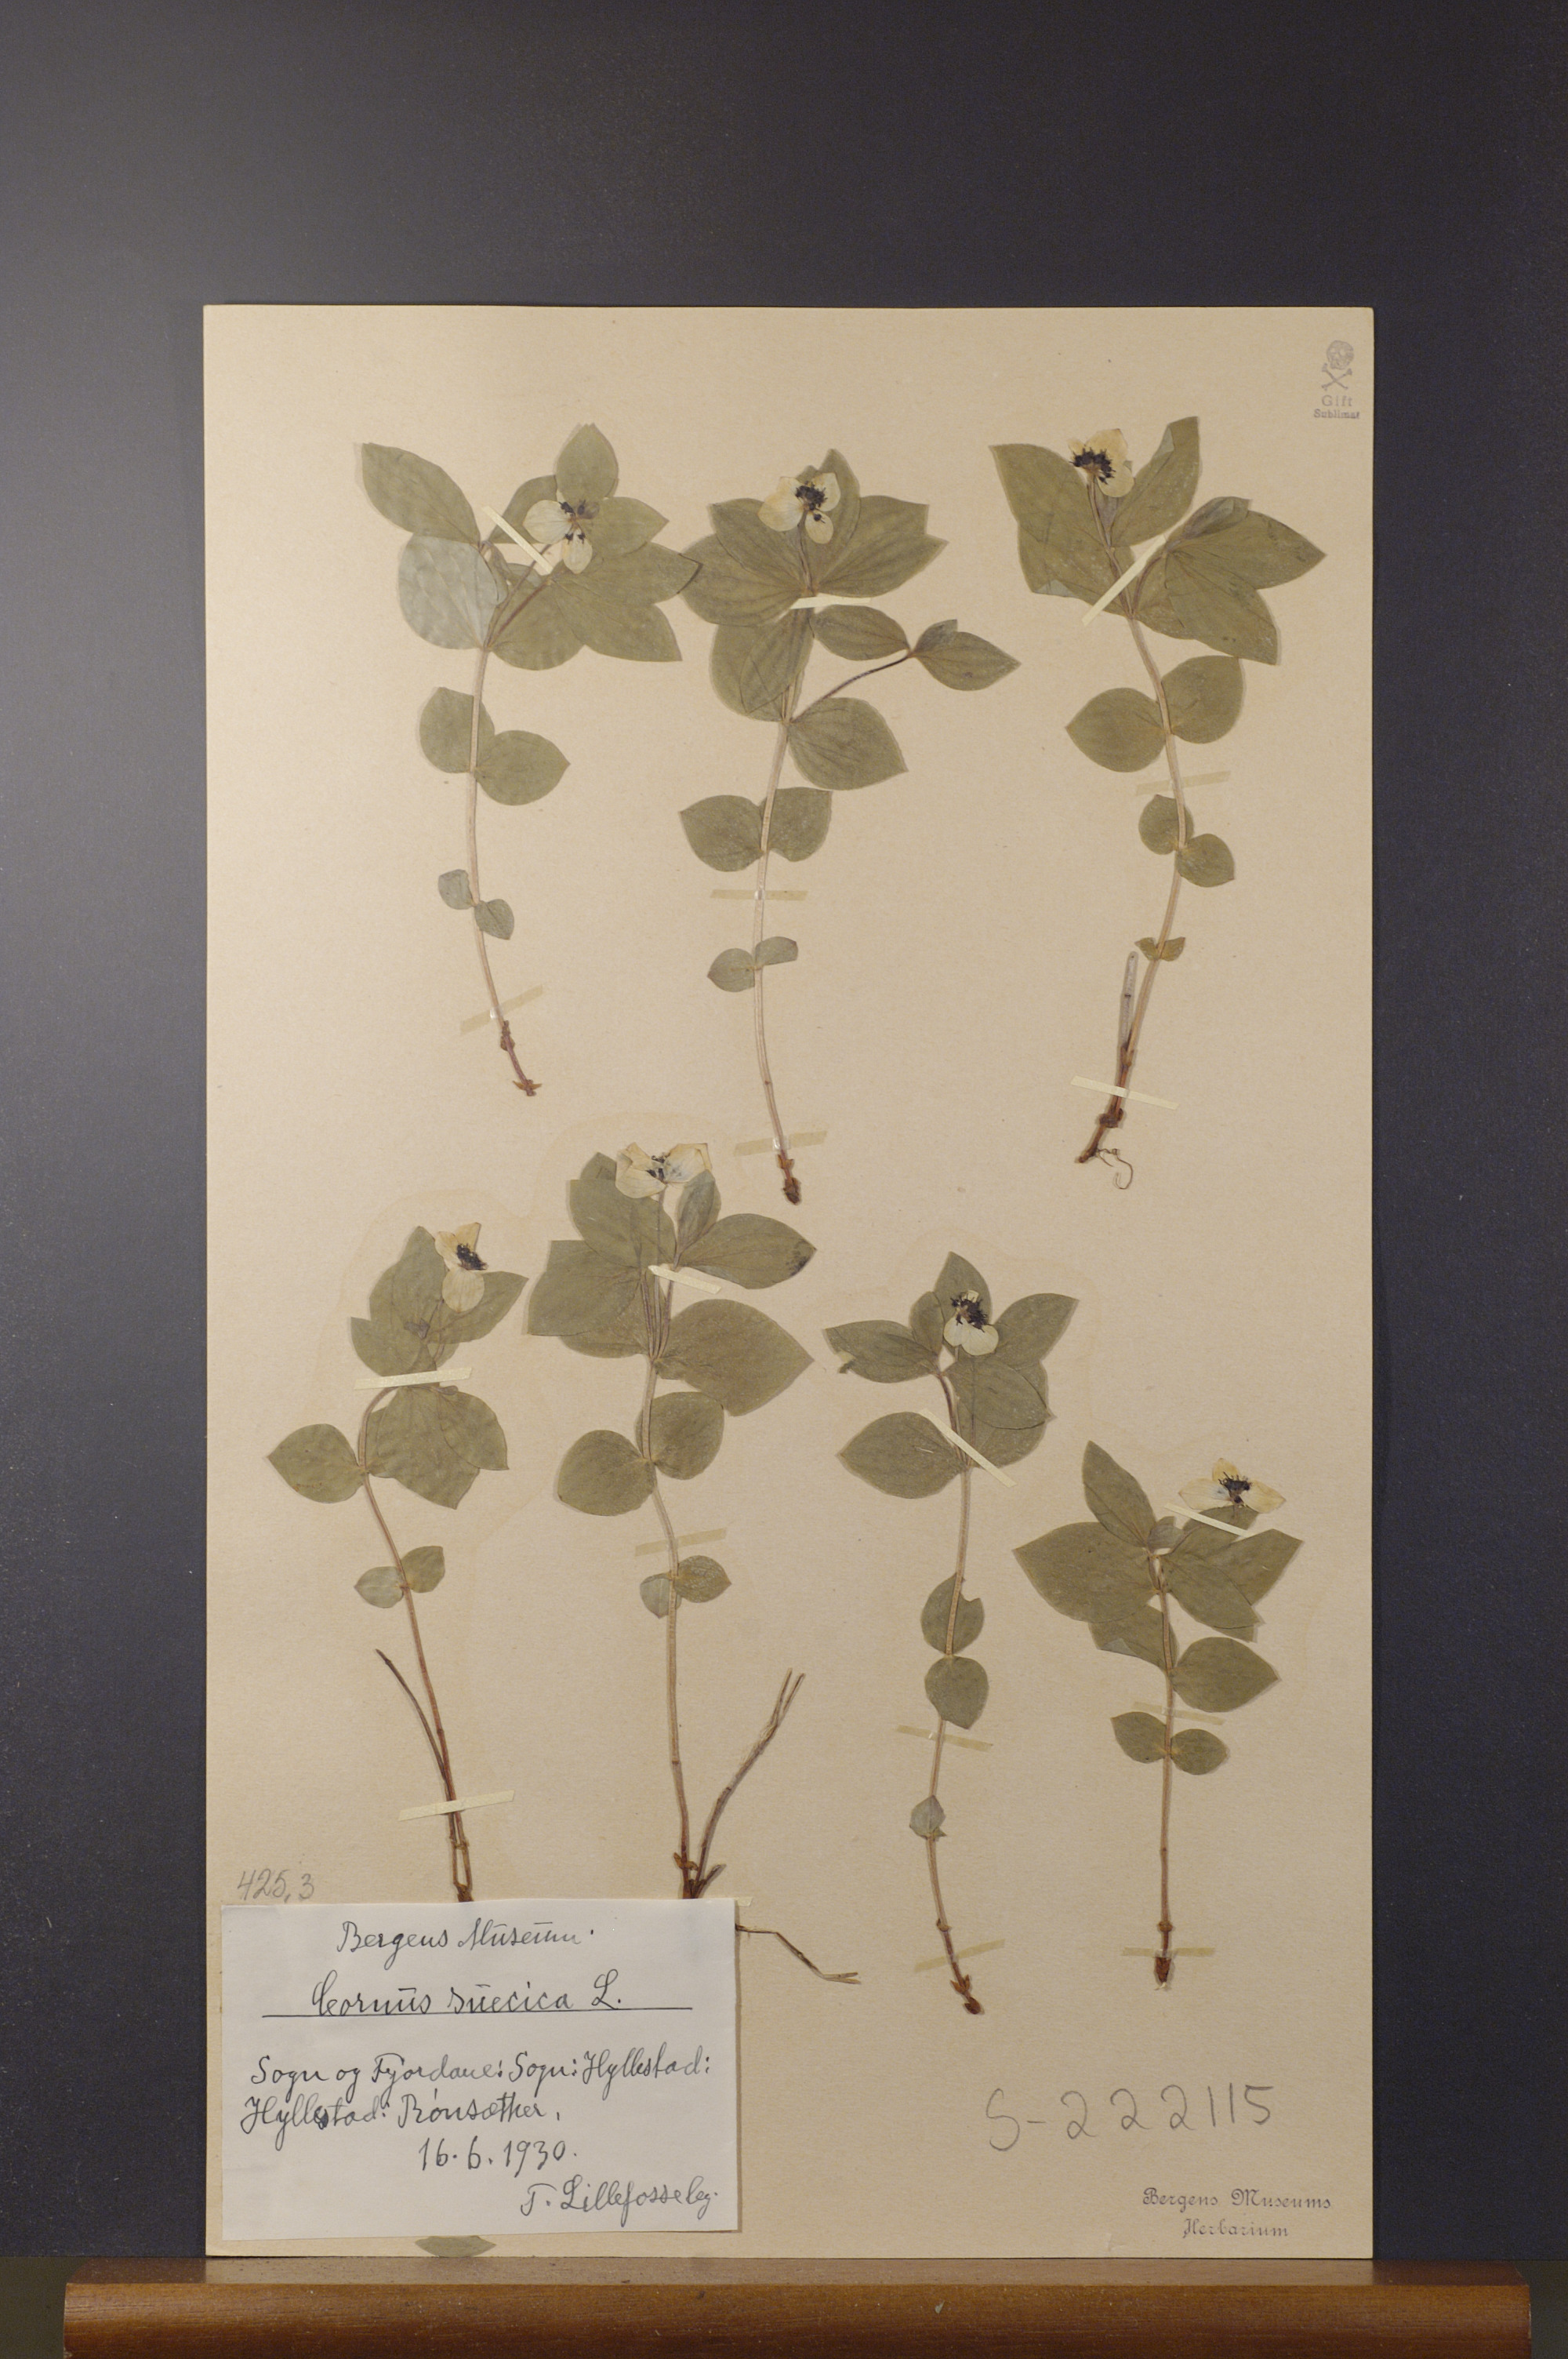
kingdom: Plantae
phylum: Tracheophyta
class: Magnoliopsida
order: Cornales
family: Cornaceae
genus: Cornus
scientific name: Cornus suecica
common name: Dwarf cornel
